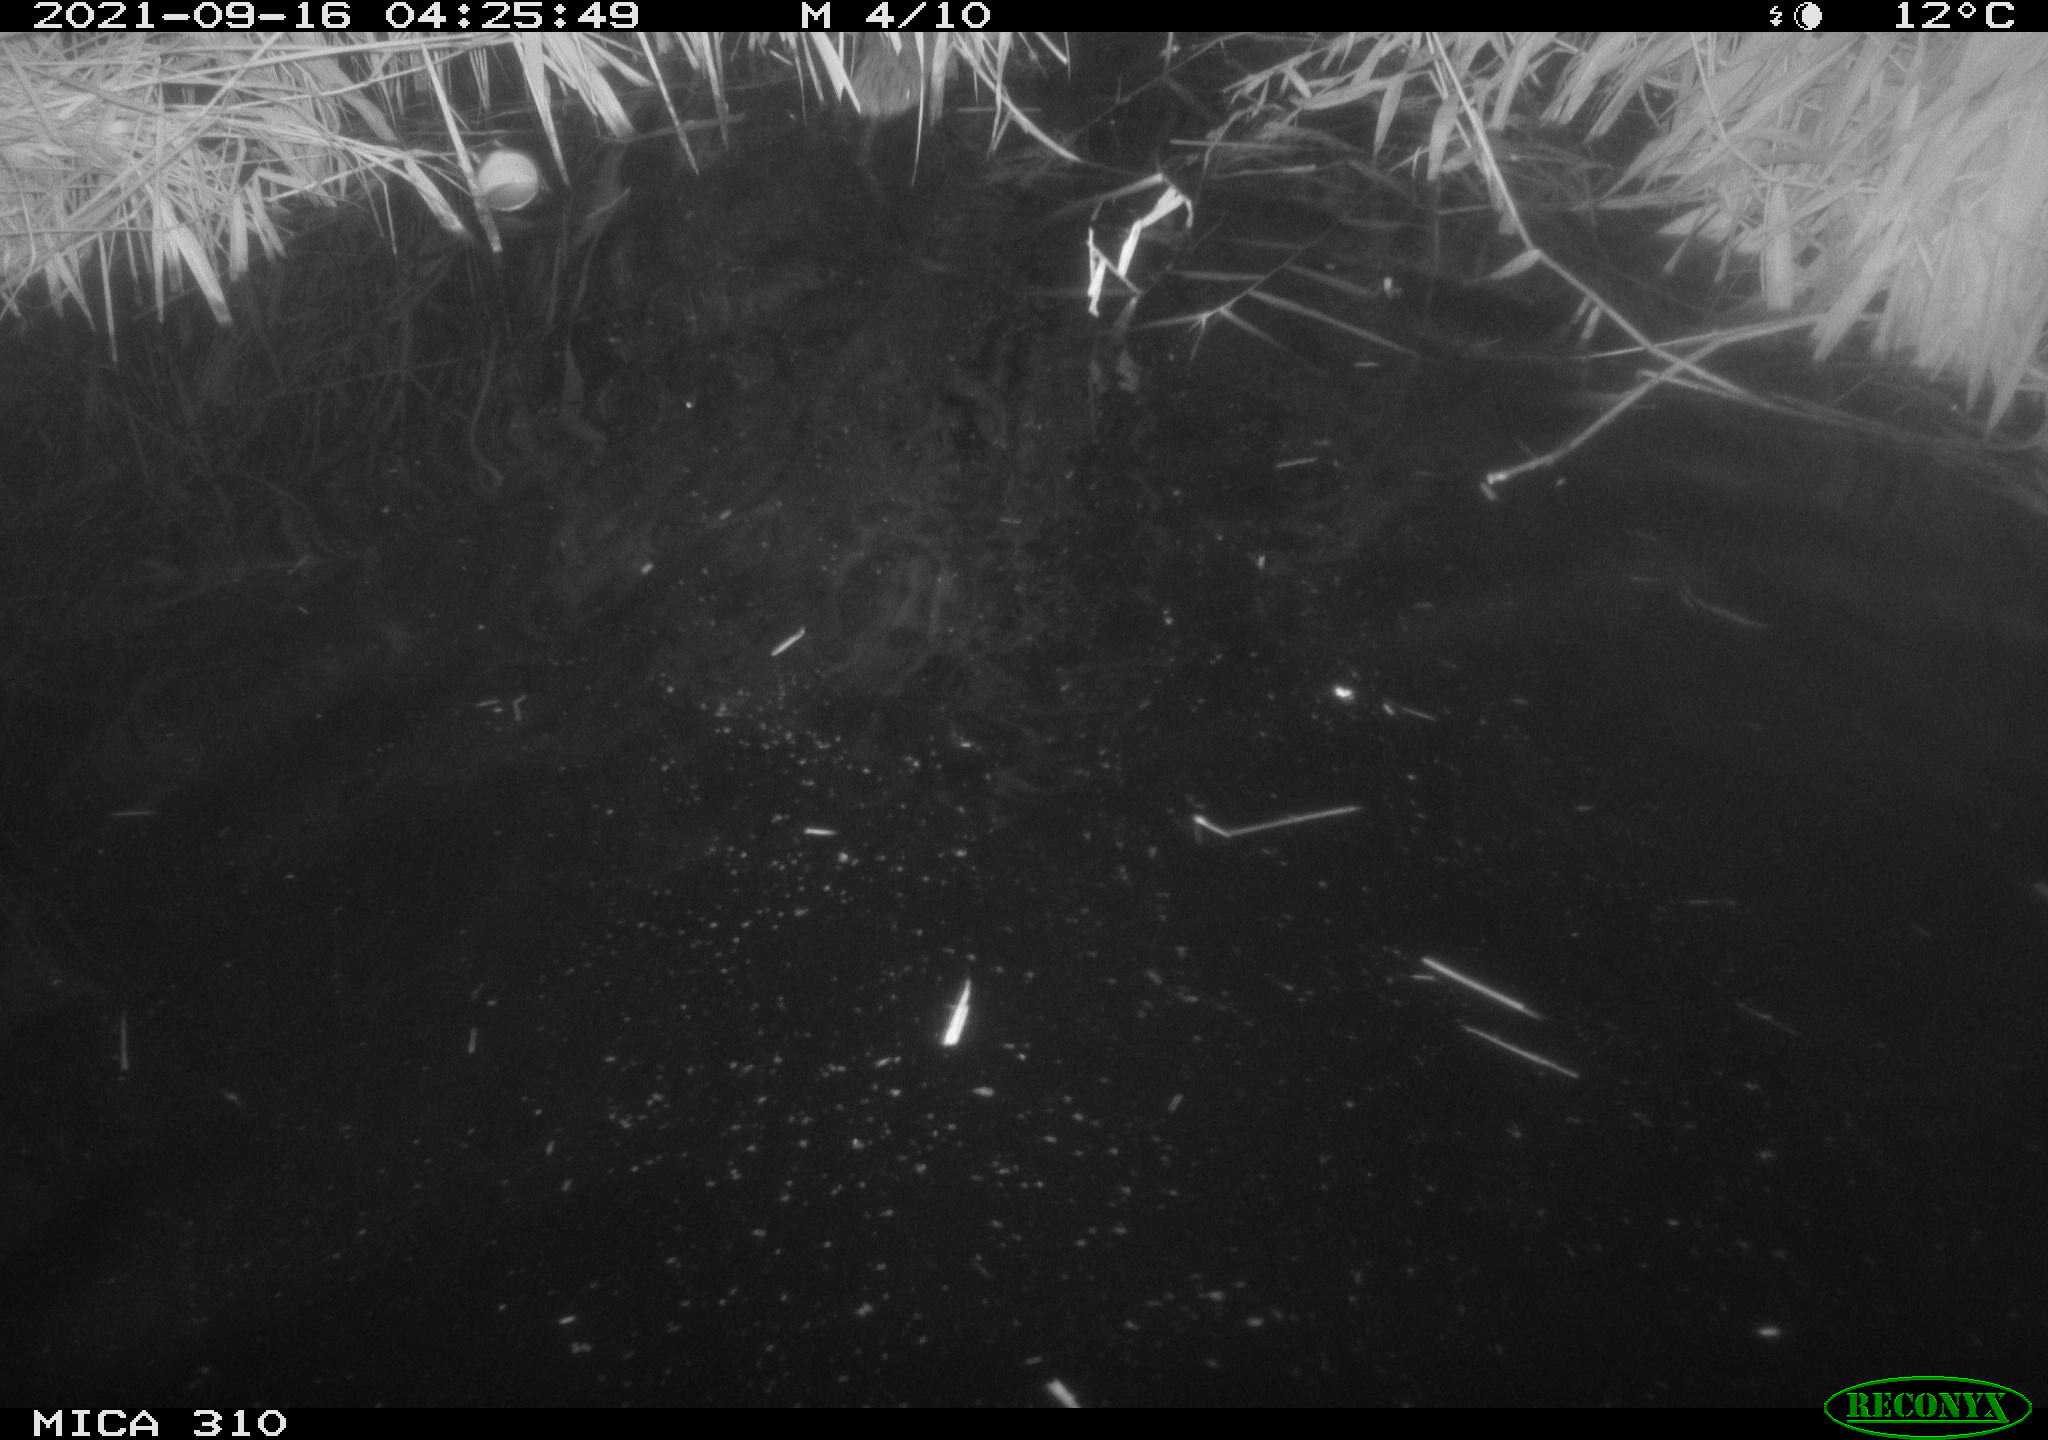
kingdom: Animalia
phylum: Chordata
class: Mammalia
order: Rodentia
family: Cricetidae
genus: Ondatra
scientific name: Ondatra zibethicus
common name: Muskrat
